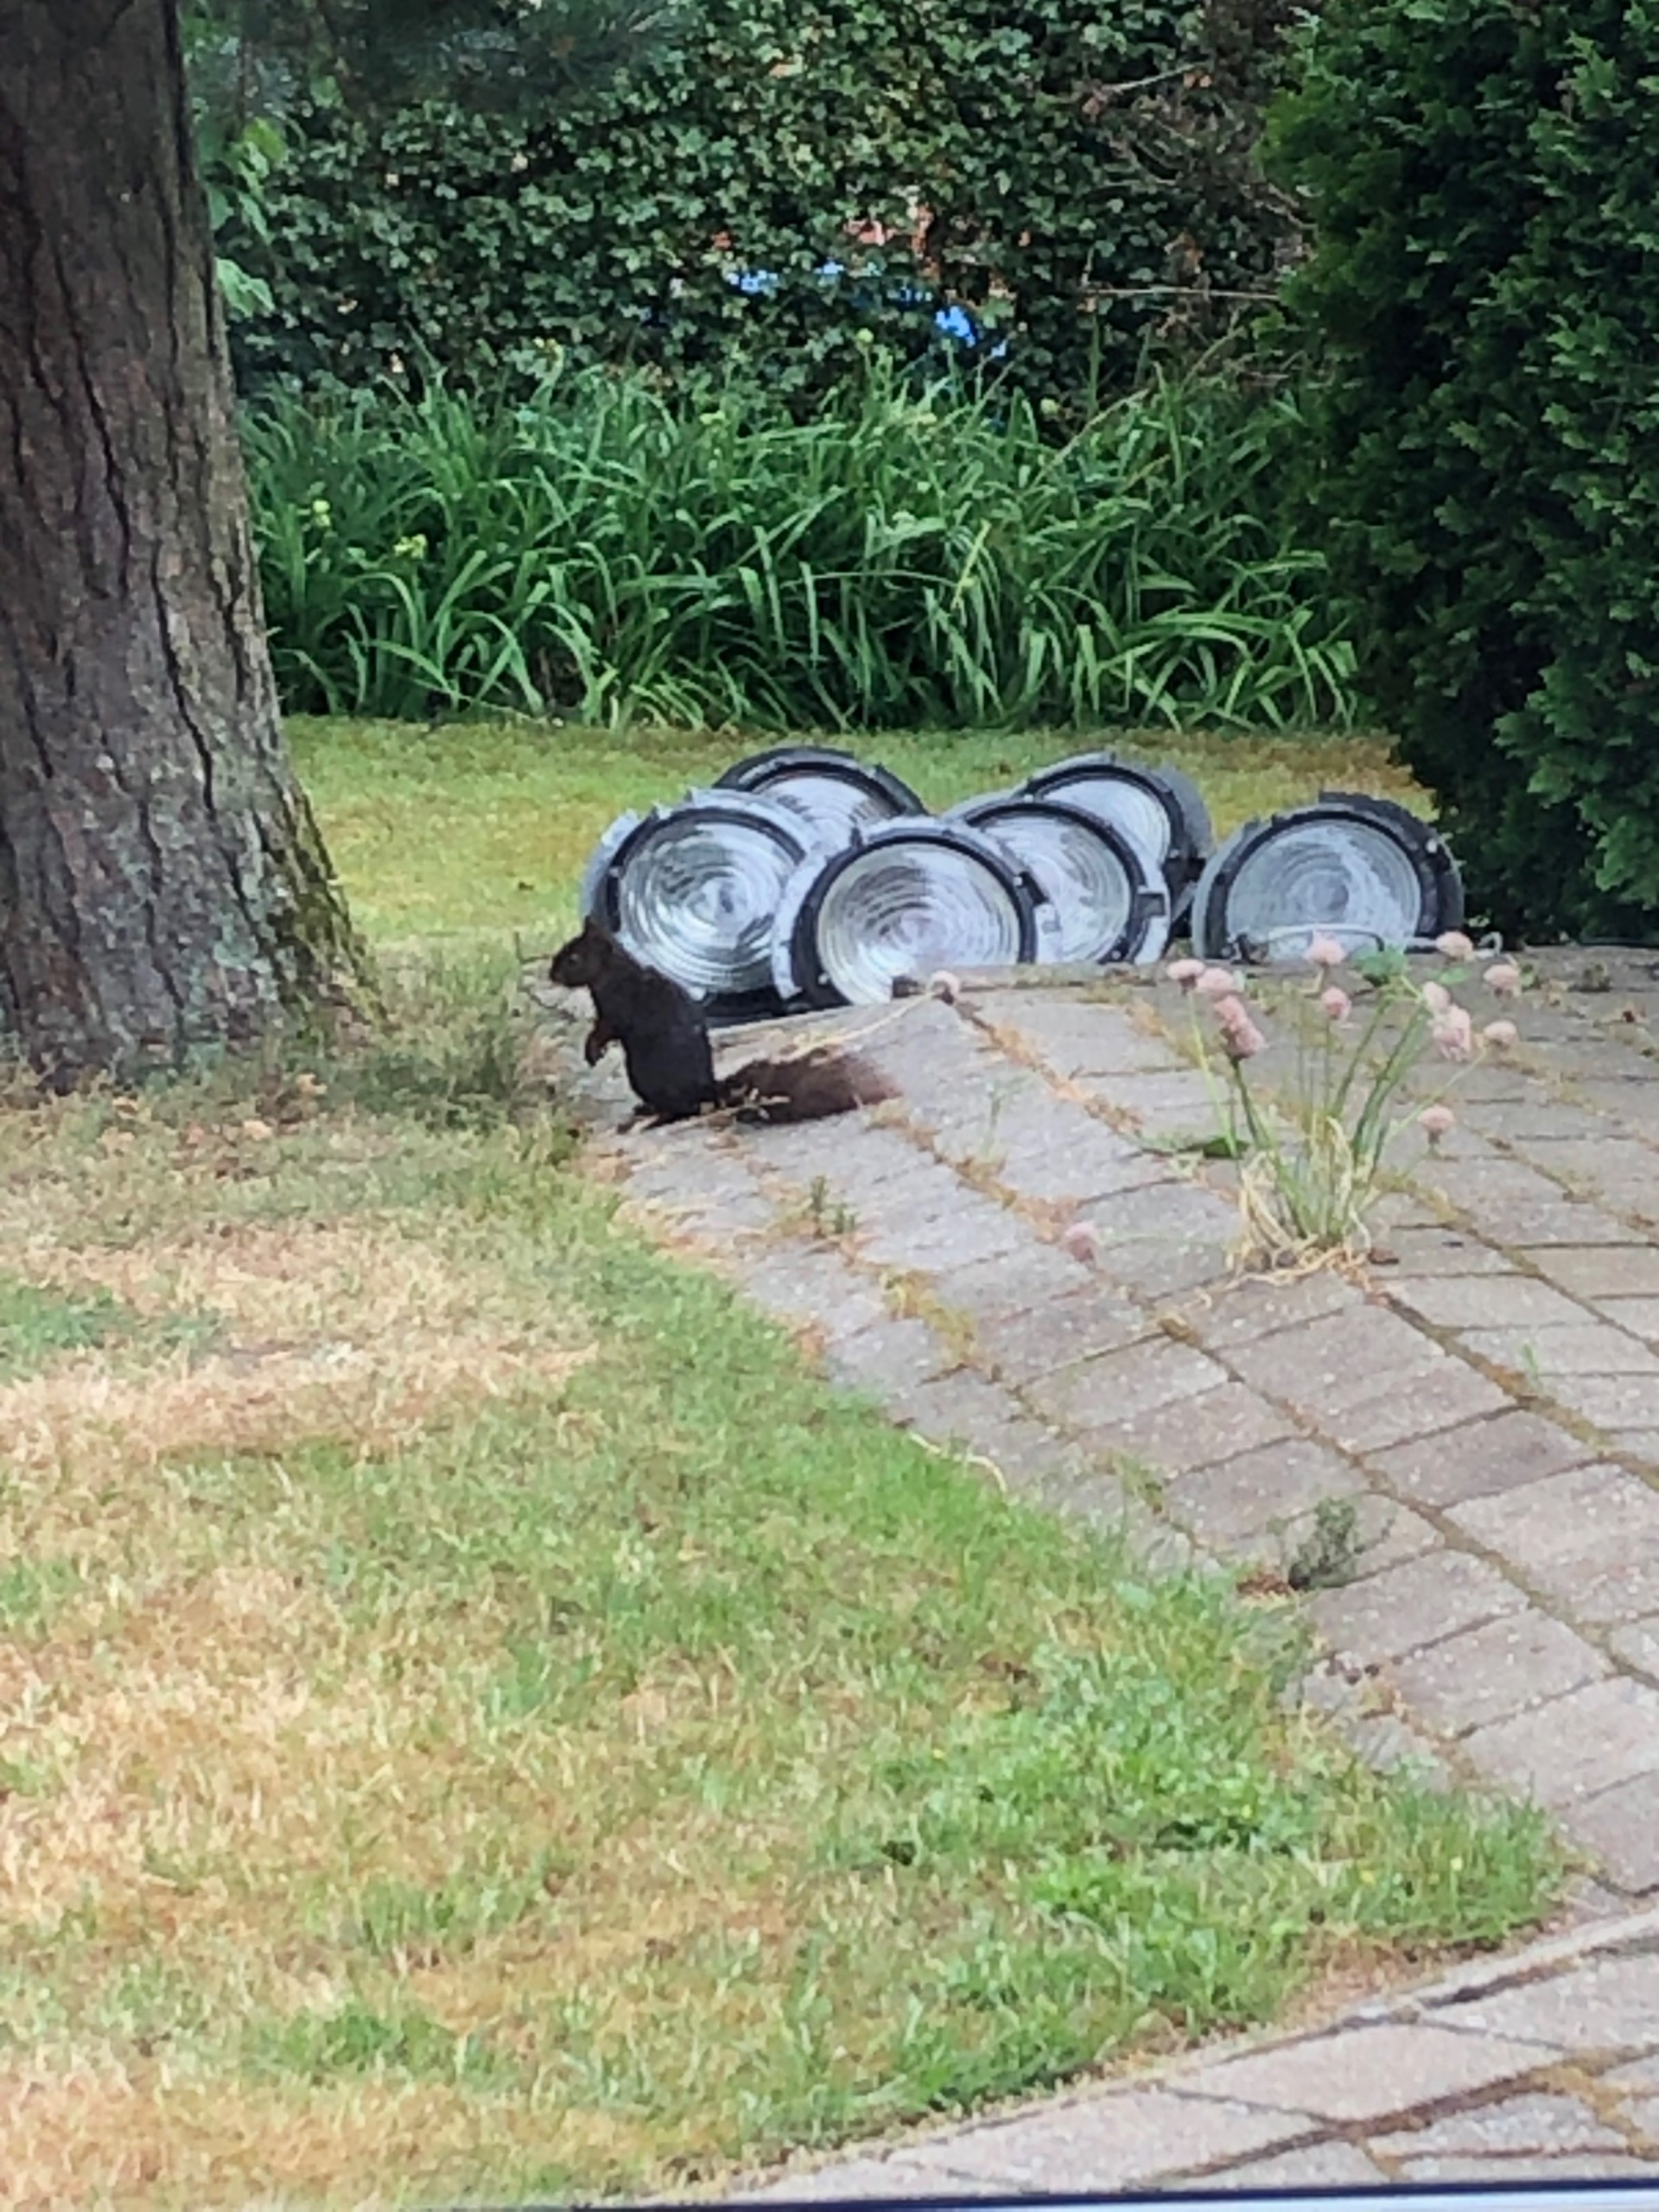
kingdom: Animalia
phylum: Chordata
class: Mammalia
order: Rodentia
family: Sciuridae
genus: Sciurus
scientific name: Sciurus vulgaris
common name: Egern
